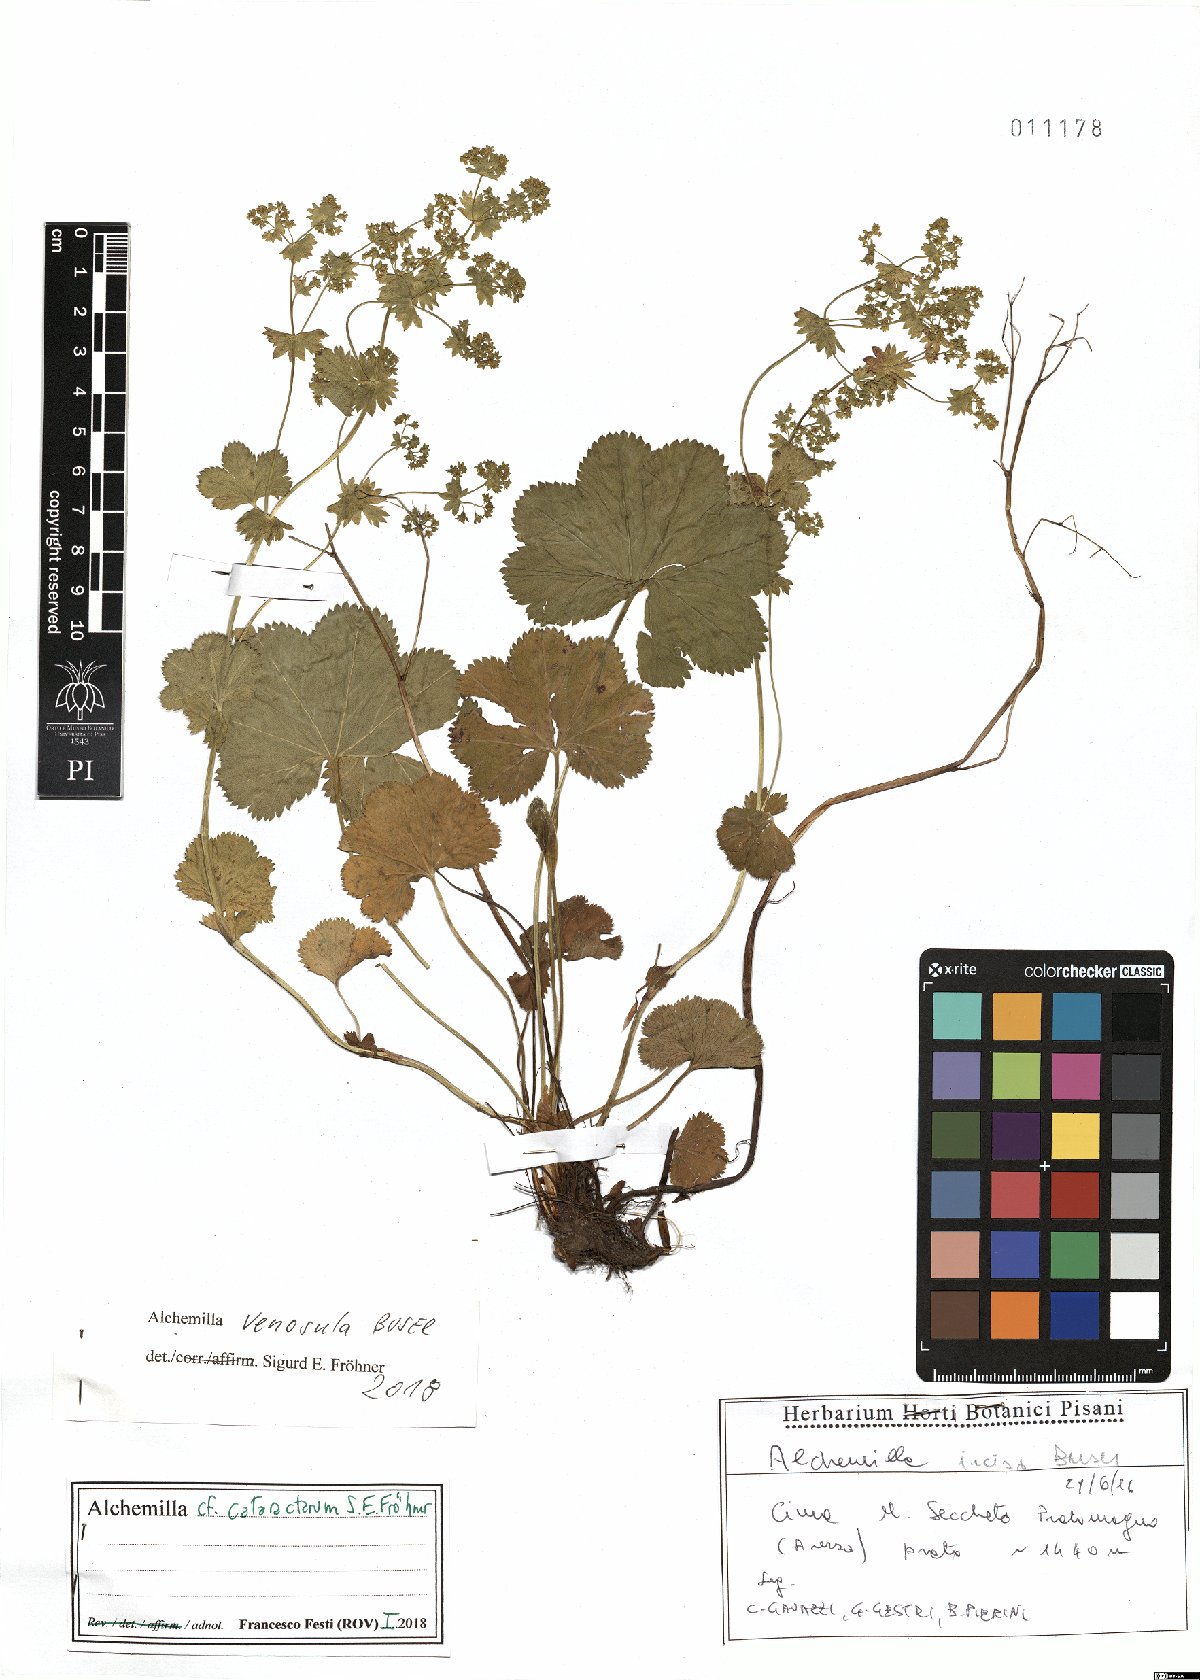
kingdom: Plantae
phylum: Tracheophyta
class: Magnoliopsida
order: Rosales
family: Rosaceae
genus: Alchemilla
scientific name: Alchemilla venosula
